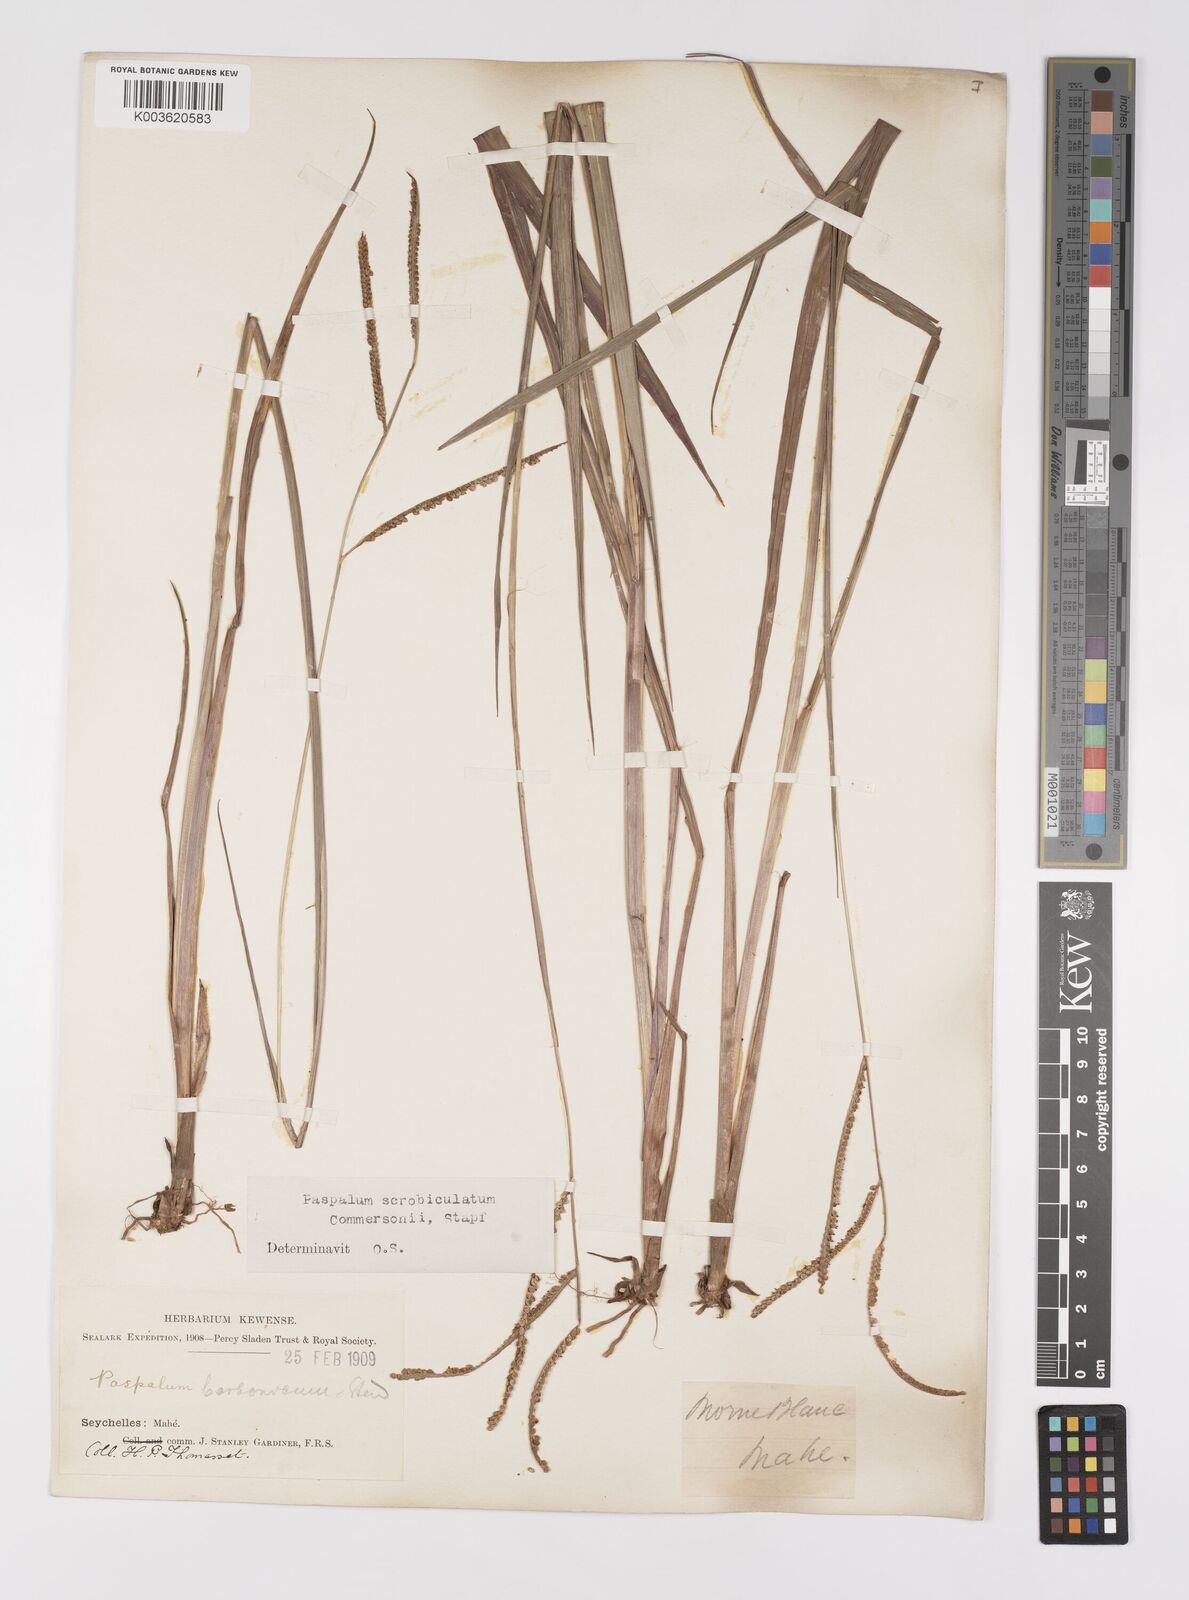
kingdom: Plantae
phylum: Tracheophyta
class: Liliopsida
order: Poales
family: Poaceae
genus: Paspalum
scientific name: Paspalum scrobiculatum
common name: Kodo millet
